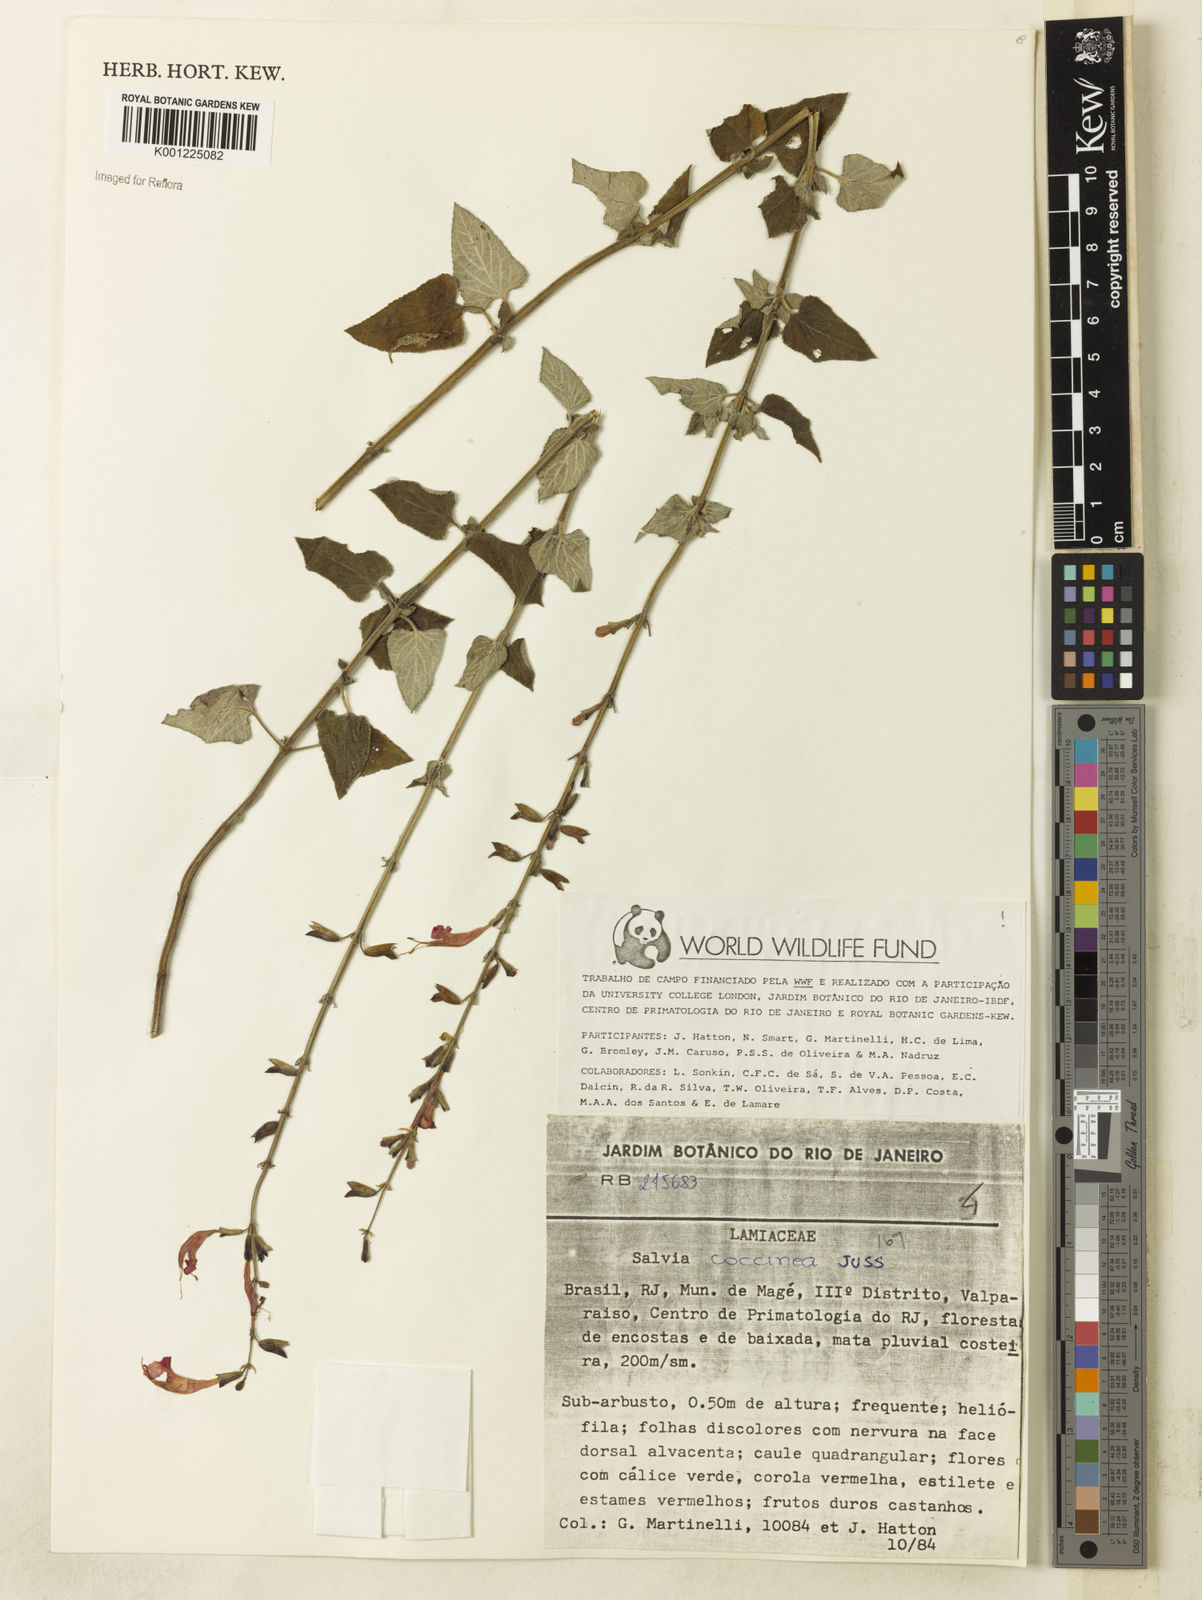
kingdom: Plantae
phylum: Tracheophyta
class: Magnoliopsida
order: Lamiales
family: Lamiaceae
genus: Salvia
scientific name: Salvia coccinea
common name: Blood sage
